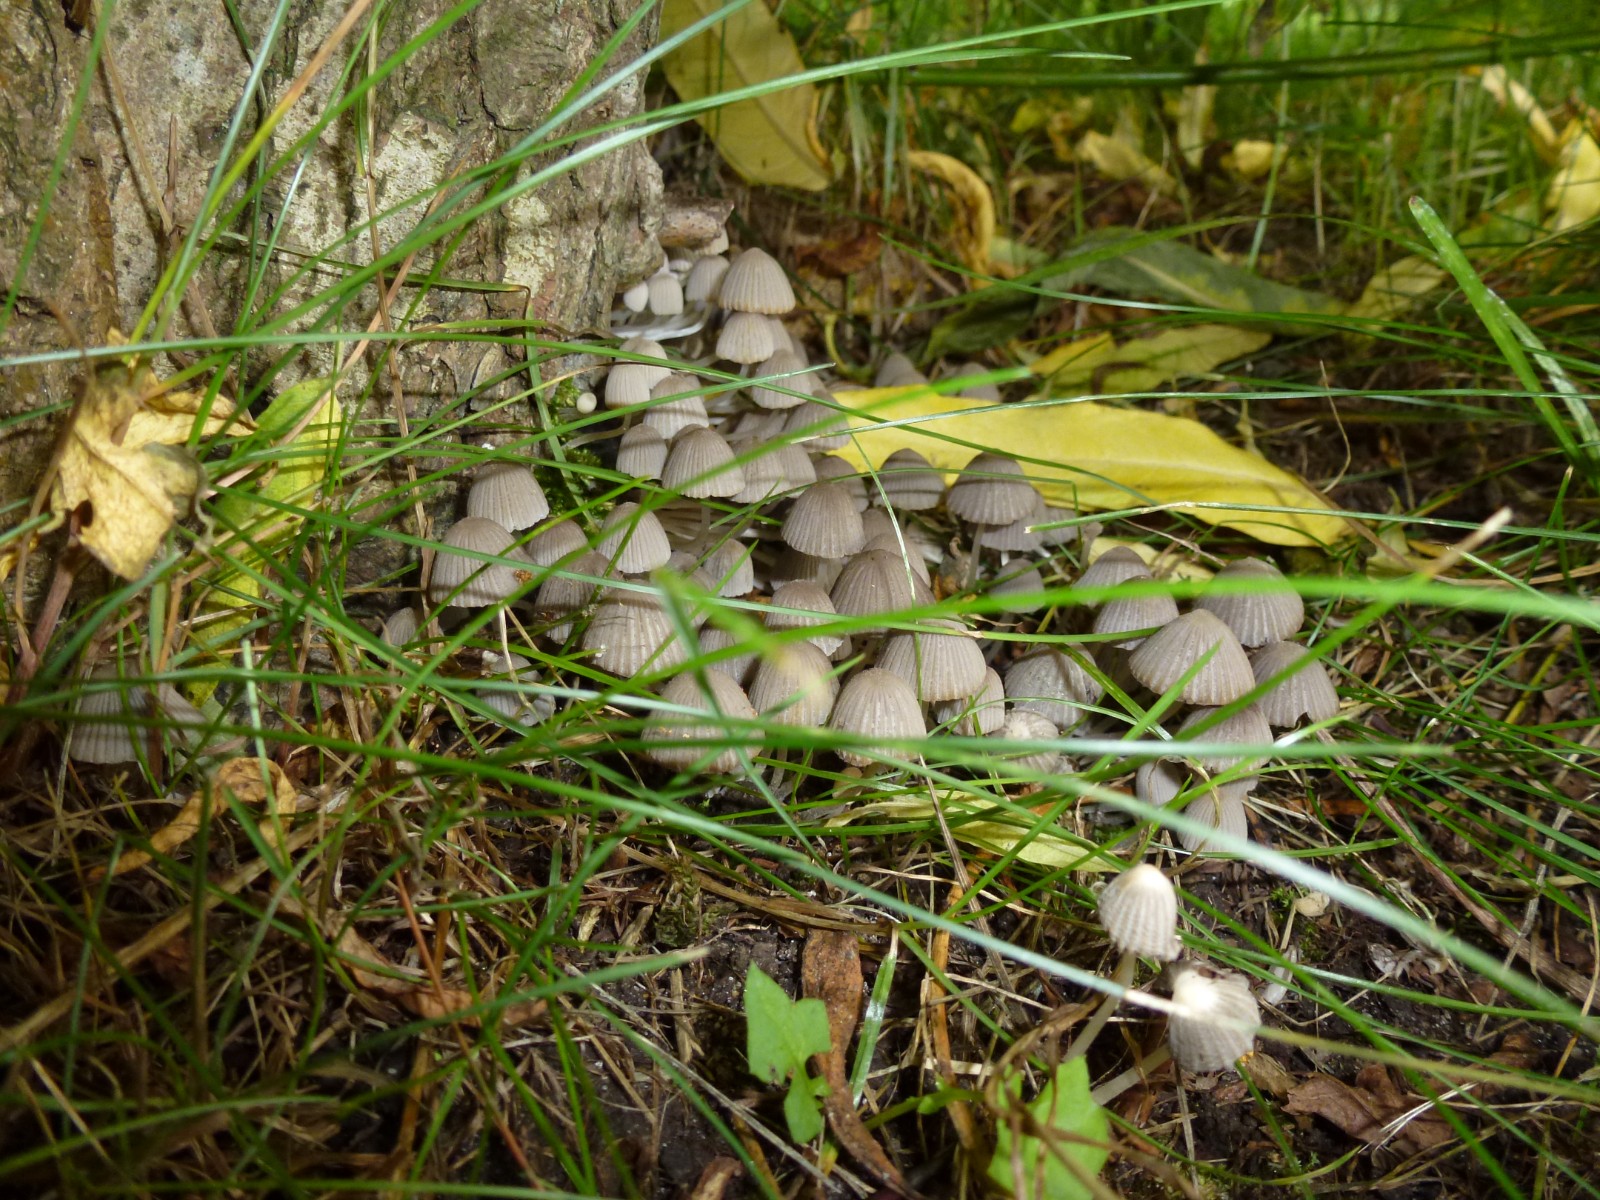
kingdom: Fungi
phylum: Basidiomycota
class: Agaricomycetes
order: Agaricales
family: Psathyrellaceae
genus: Coprinellus
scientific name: Coprinellus disseminatus
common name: bredsået blækhat
